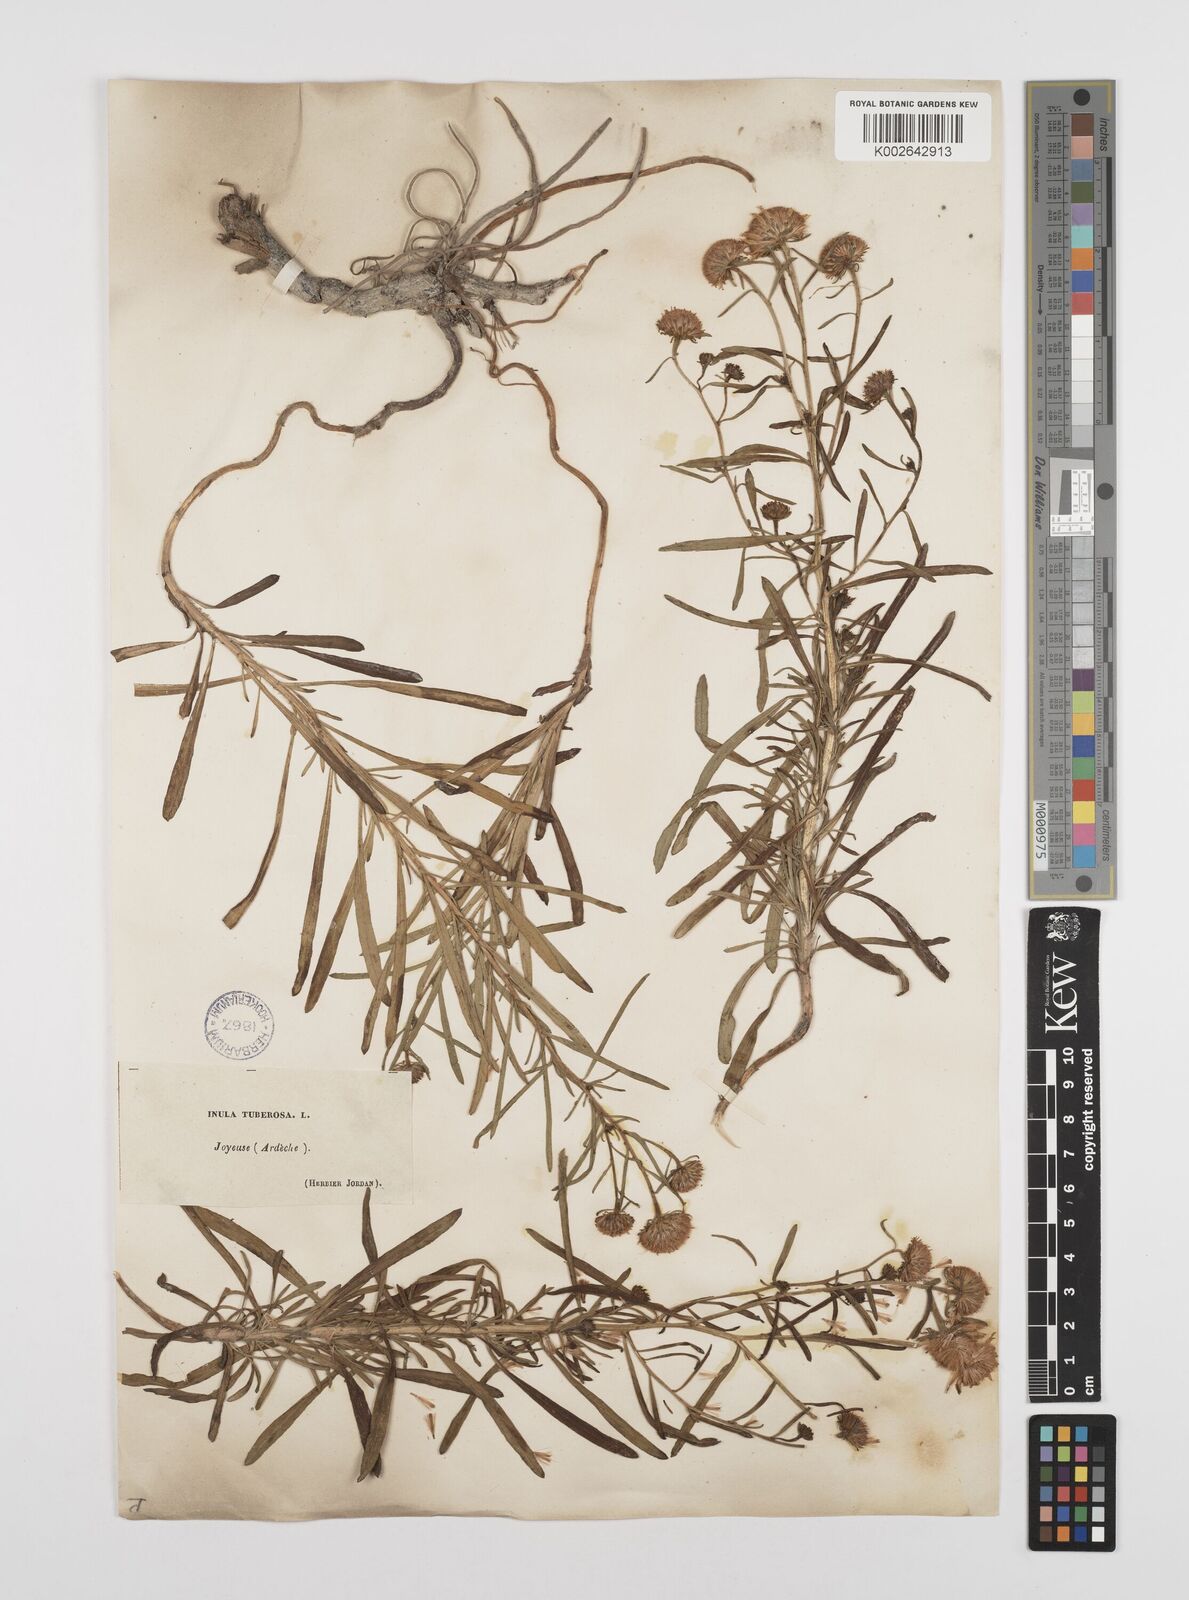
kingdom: Plantae
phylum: Tracheophyta
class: Magnoliopsida
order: Asterales
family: Asteraceae
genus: Jasonia
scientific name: Jasonia tuberosa
